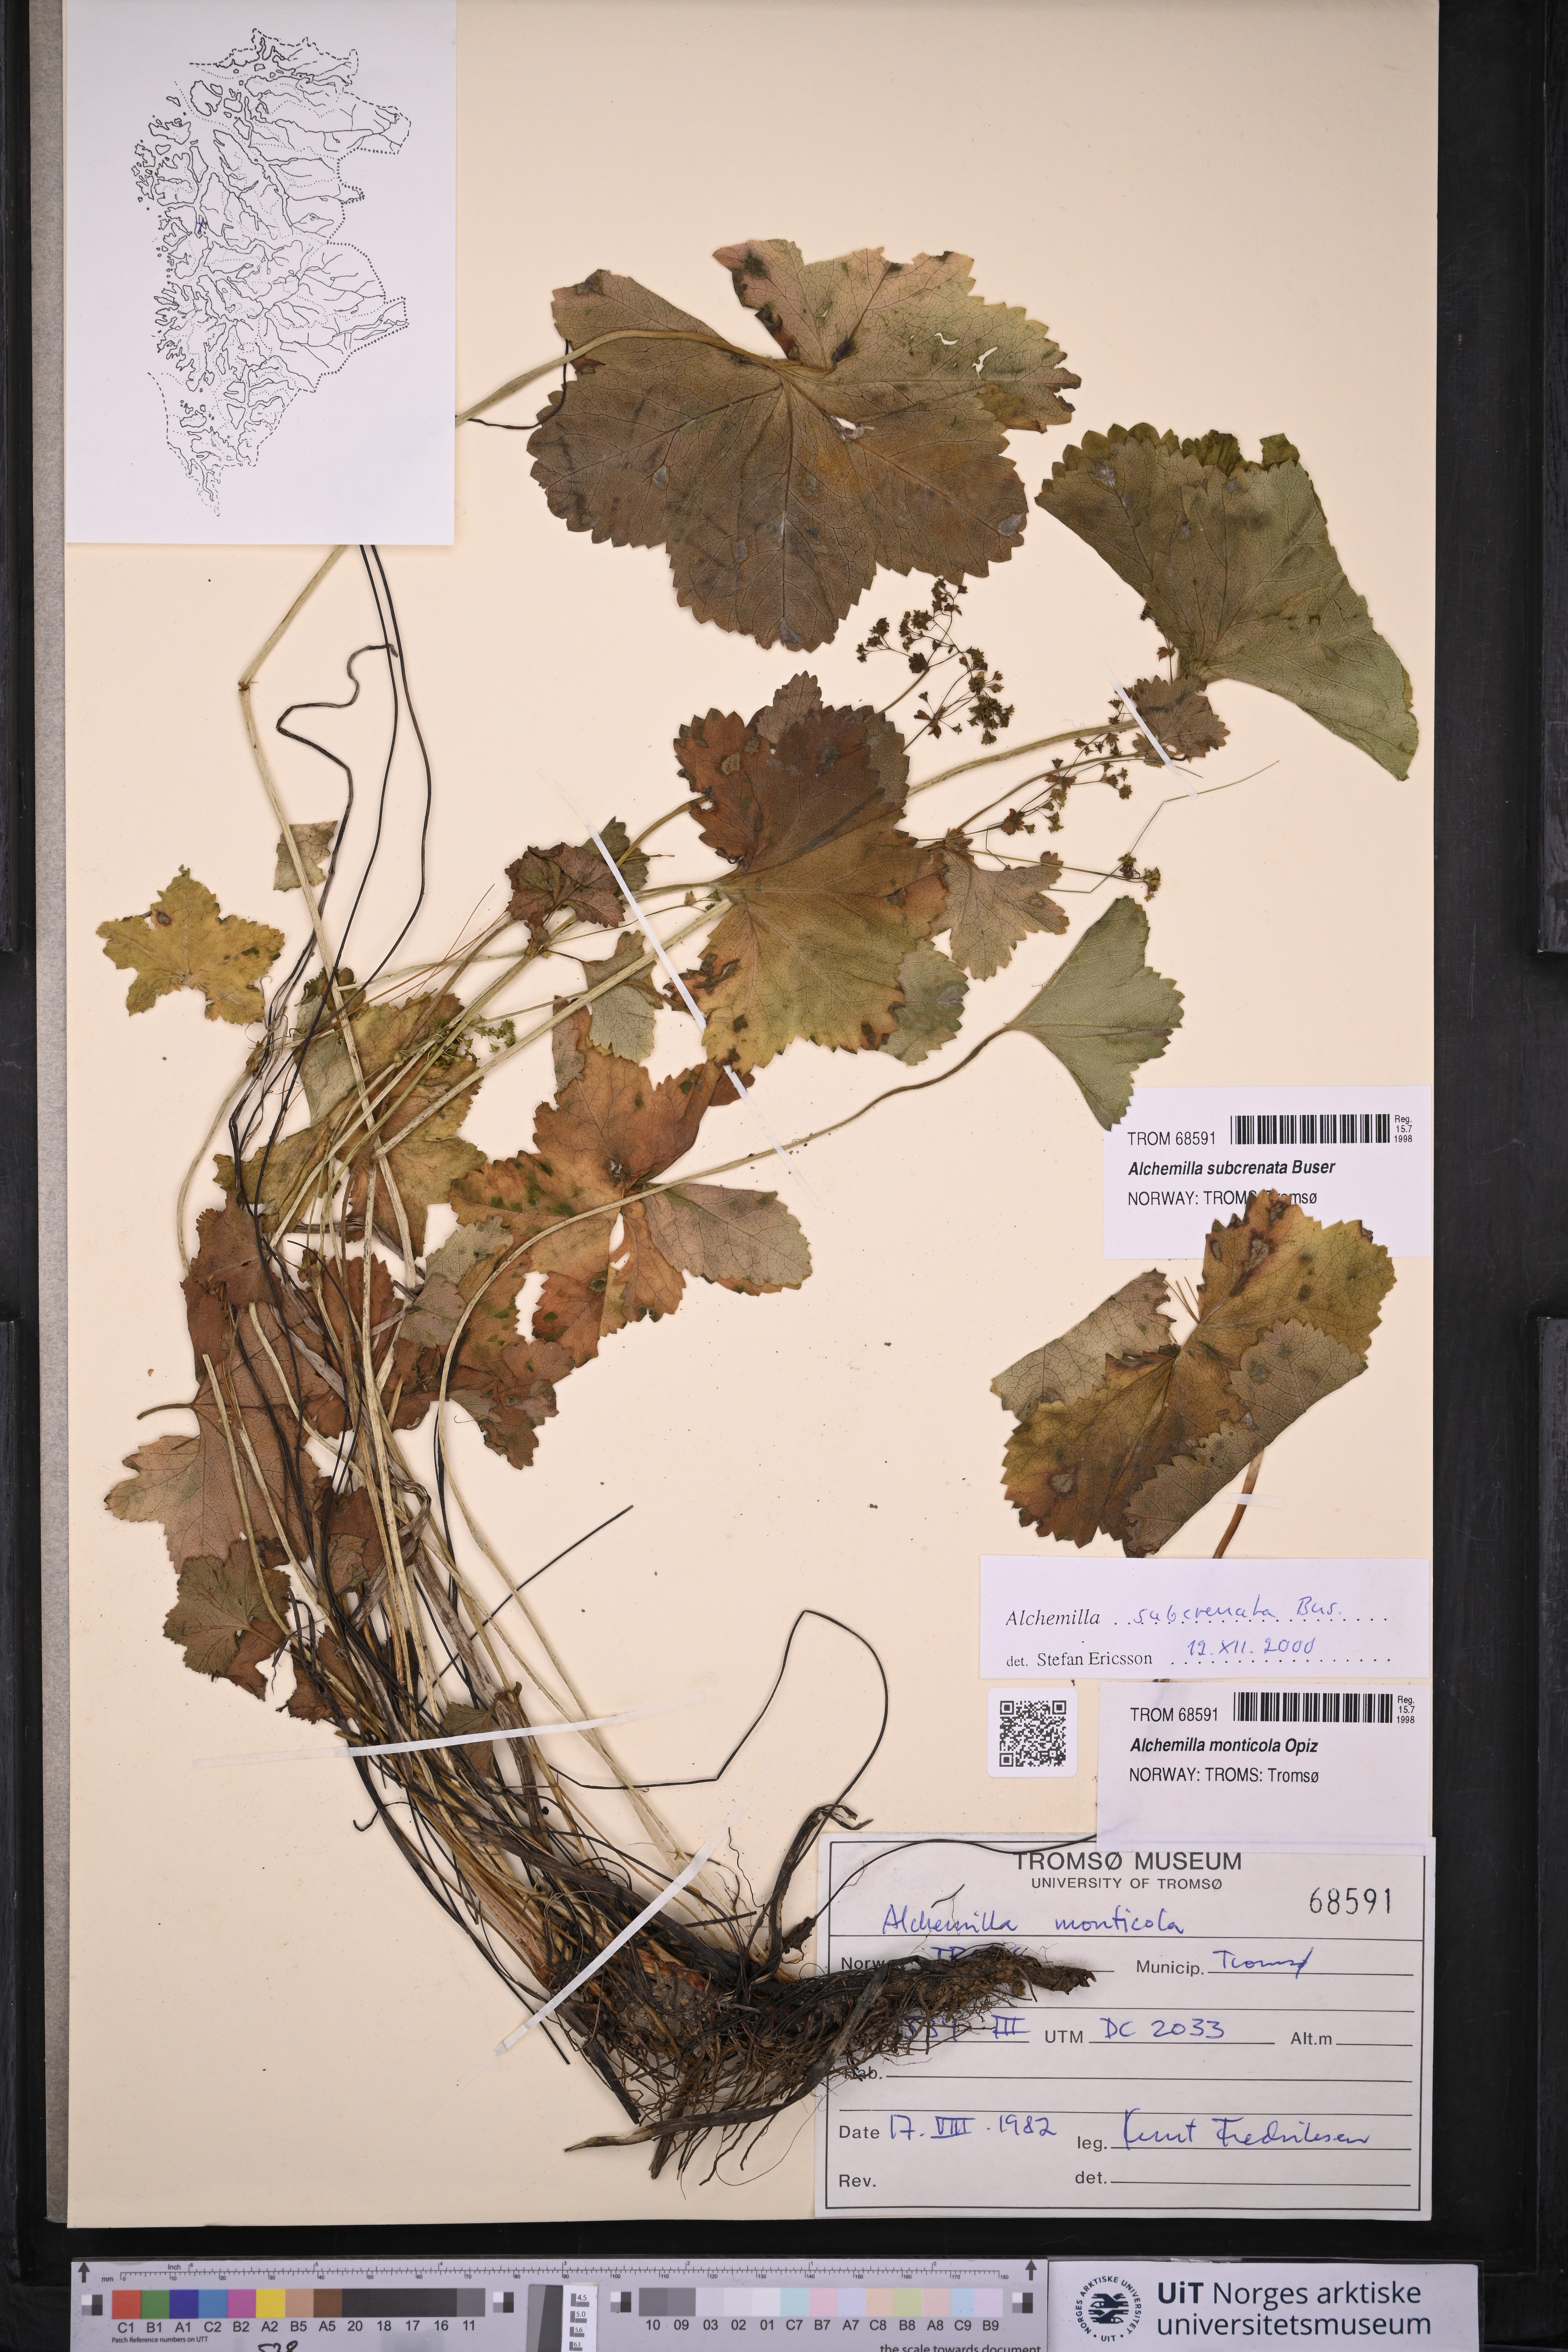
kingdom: Plantae
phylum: Tracheophyta
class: Magnoliopsida
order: Rosales
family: Rosaceae
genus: Alchemilla
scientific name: Alchemilla subcrenata
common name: Broadtooth lady's mantle
